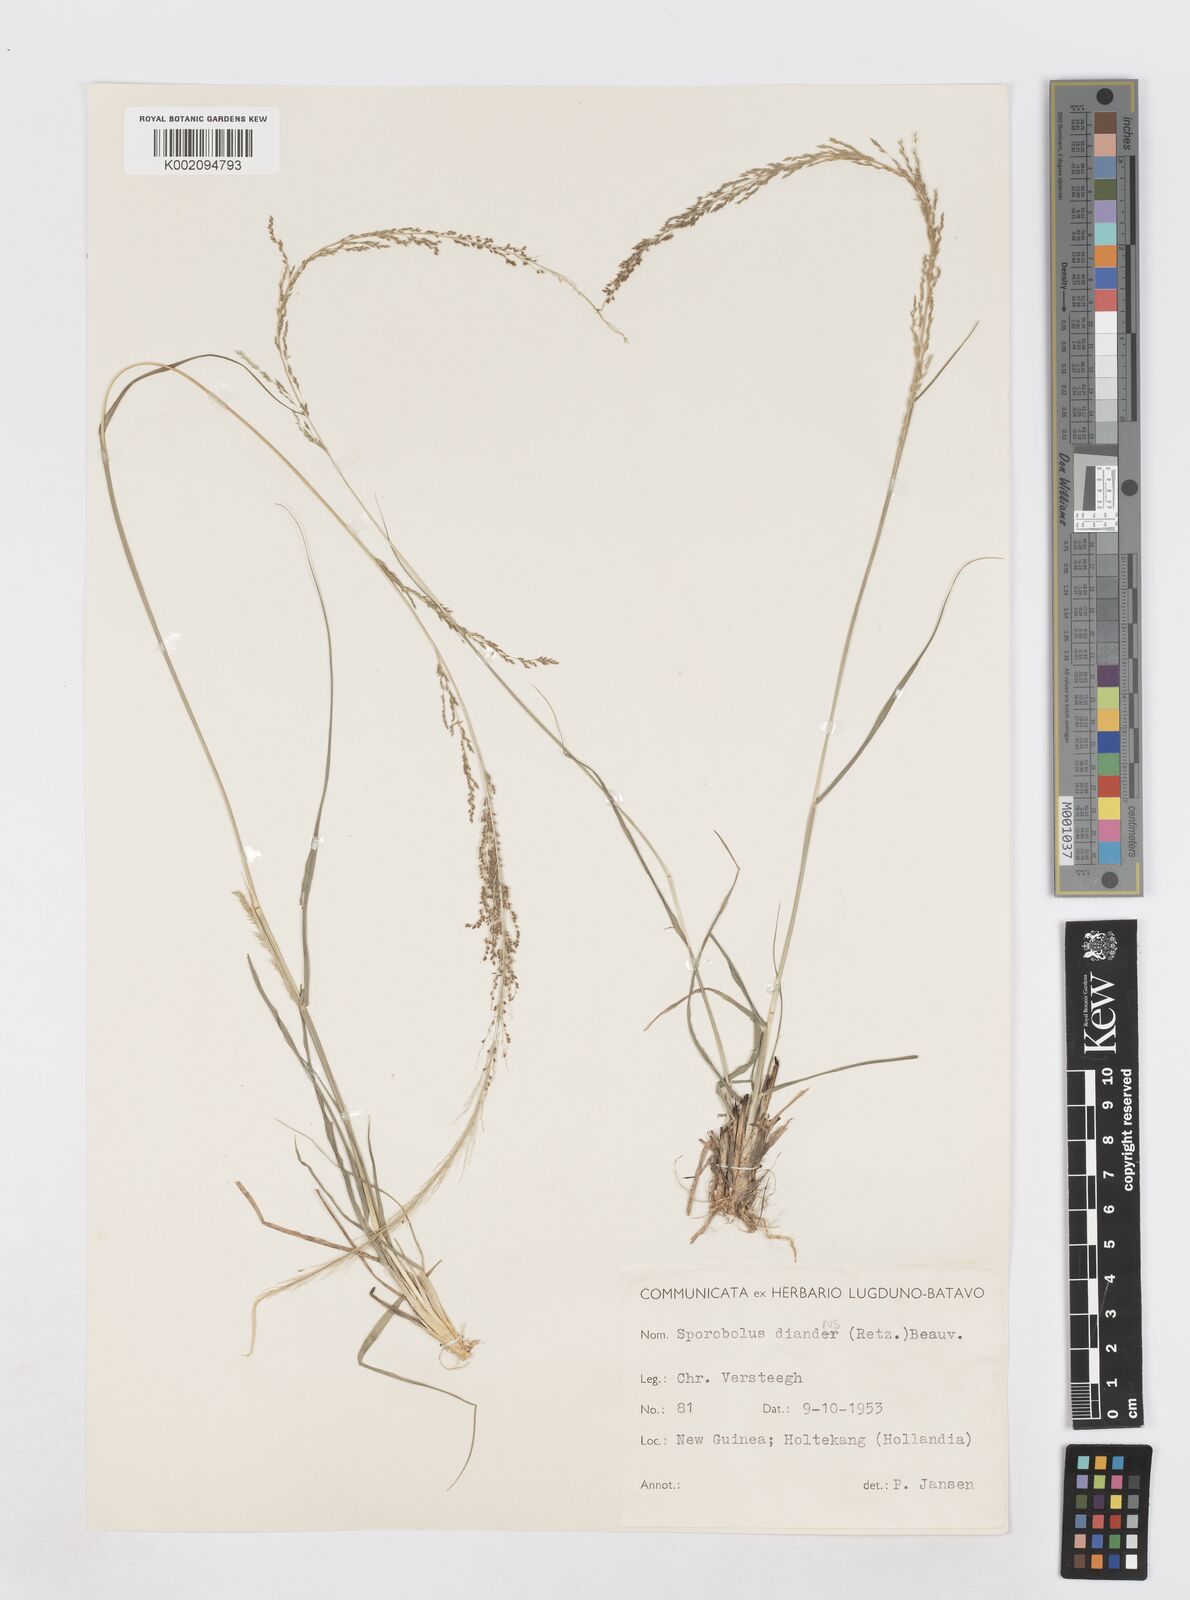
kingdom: Plantae
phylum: Tracheophyta
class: Liliopsida
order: Poales
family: Poaceae
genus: Sporobolus
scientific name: Sporobolus diandrus
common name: Tussock dropseed
